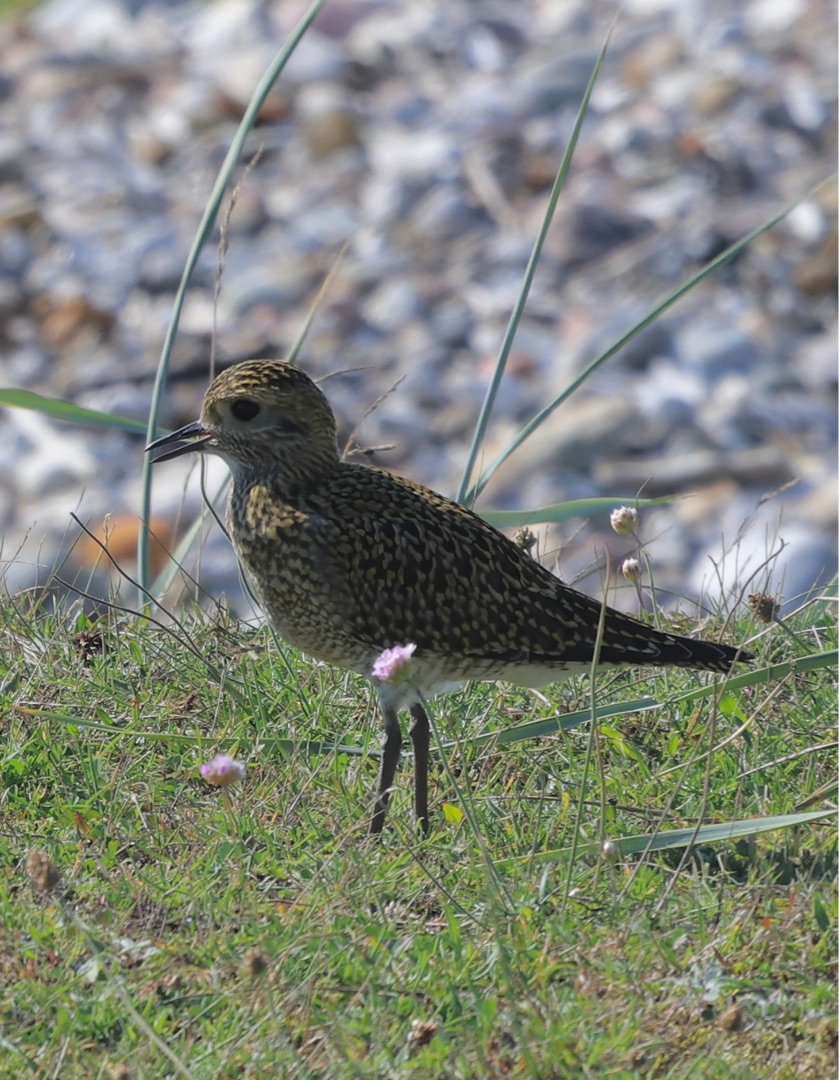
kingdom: Animalia
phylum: Chordata
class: Aves
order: Charadriiformes
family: Charadriidae
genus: Pluvialis
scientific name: Pluvialis apricaria
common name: Hjejle
